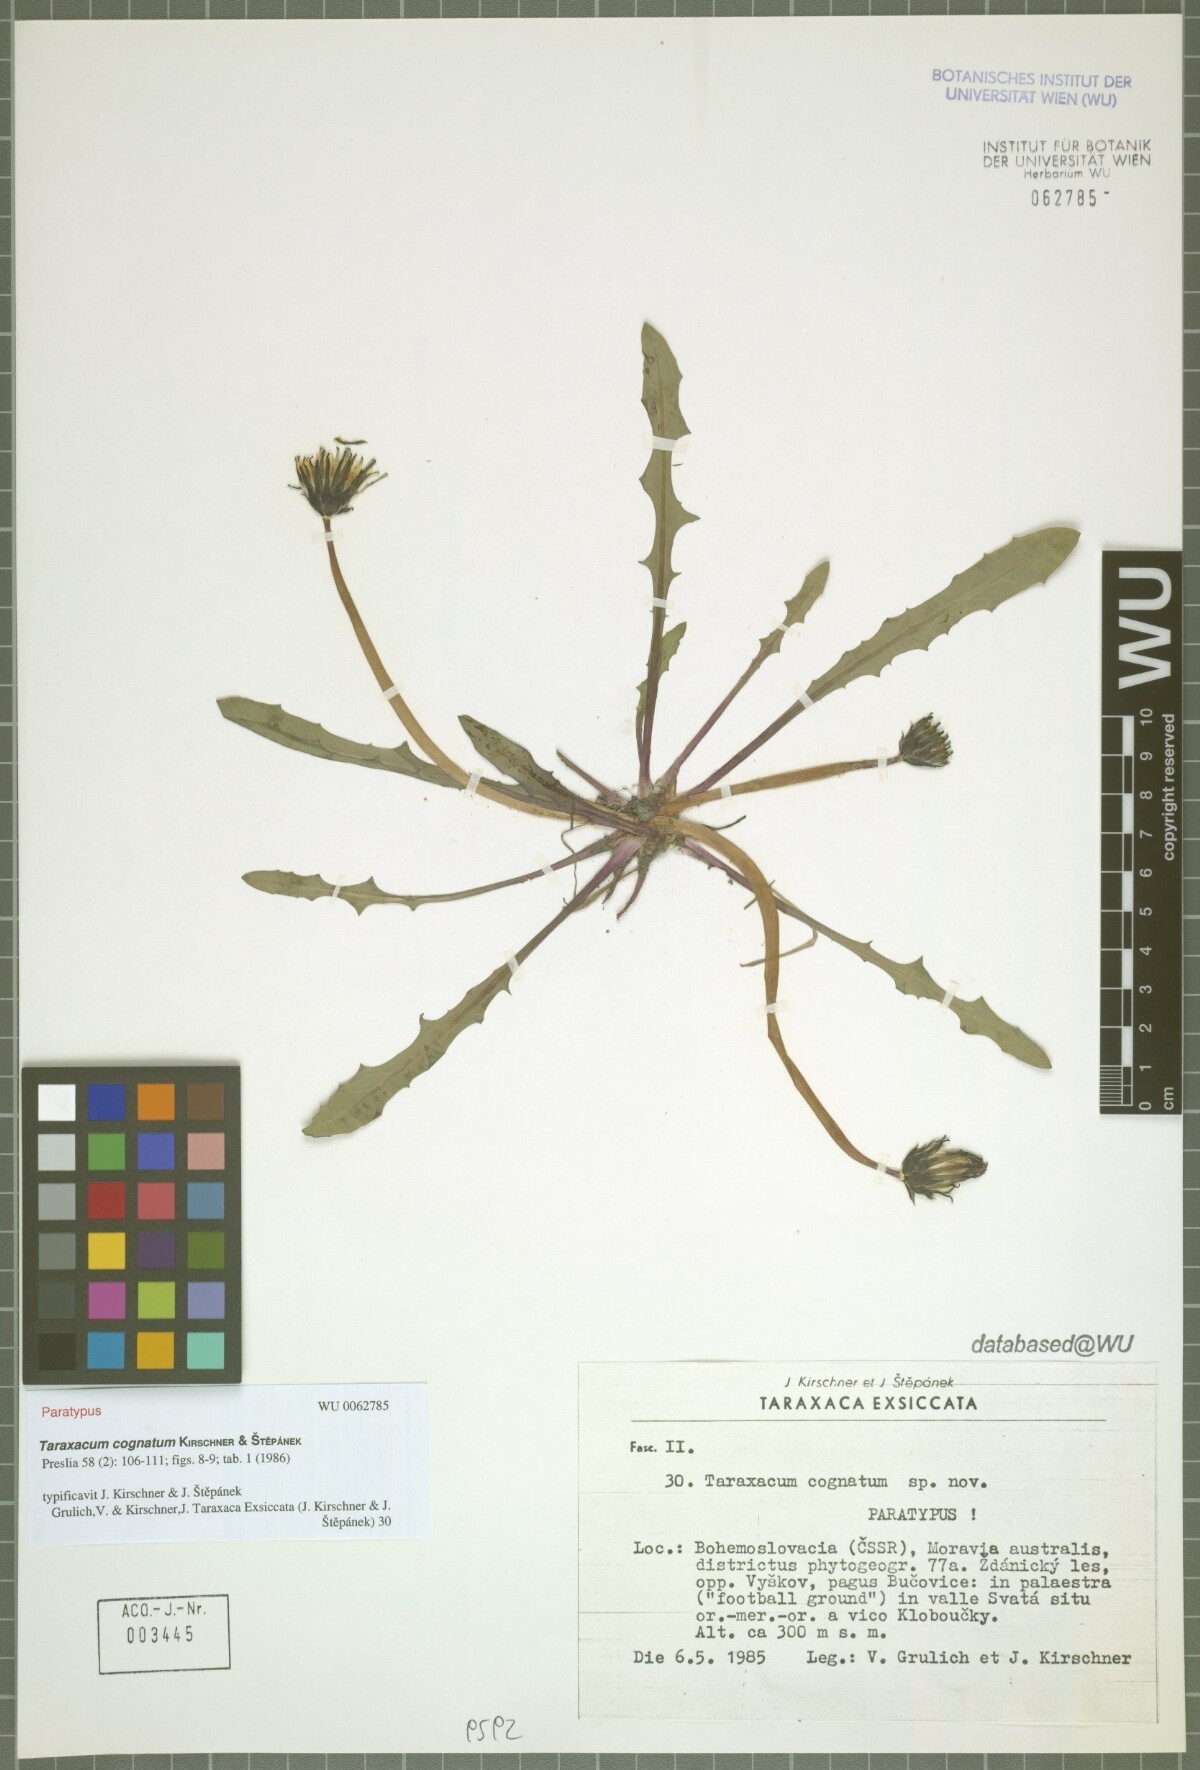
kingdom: Plantae
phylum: Tracheophyta
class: Magnoliopsida
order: Asterales
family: Asteraceae
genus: Taraxacum
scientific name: Taraxacum cognatum
